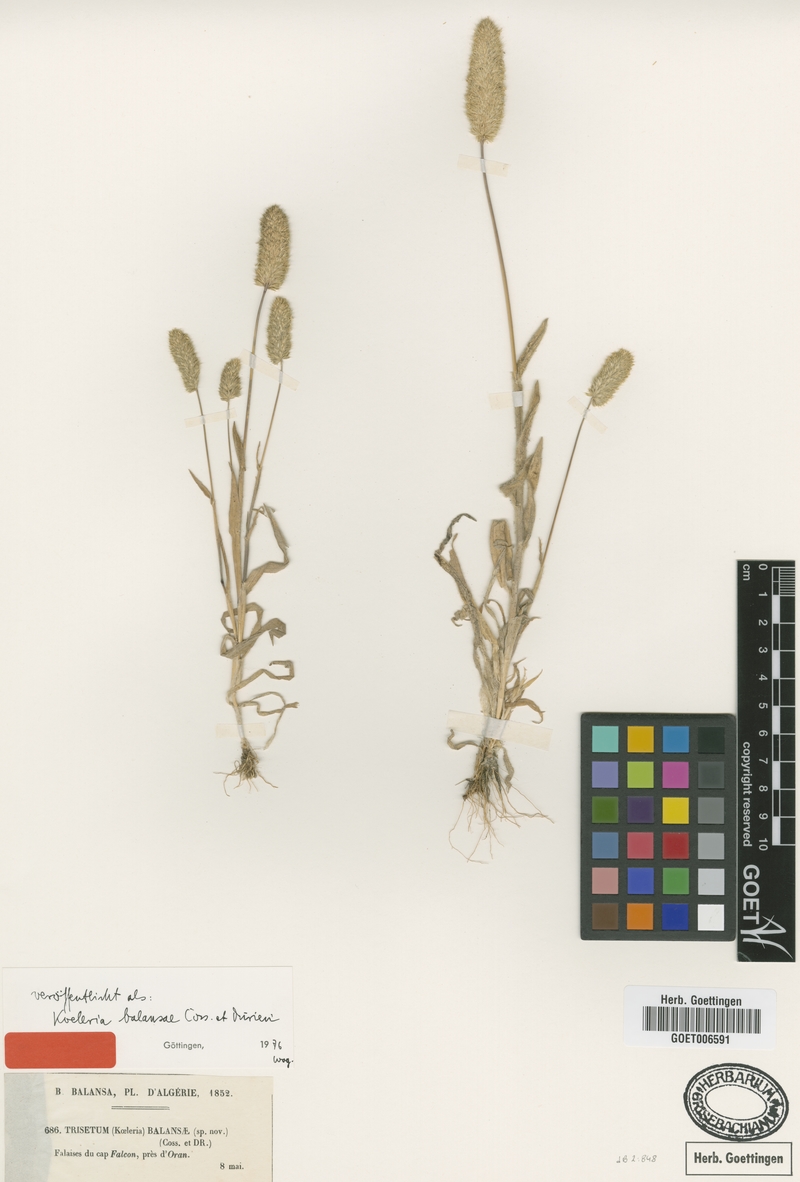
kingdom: Plantae
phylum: Tracheophyta
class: Liliopsida
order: Poales
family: Poaceae
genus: Rostraria
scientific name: Rostraria balansae
